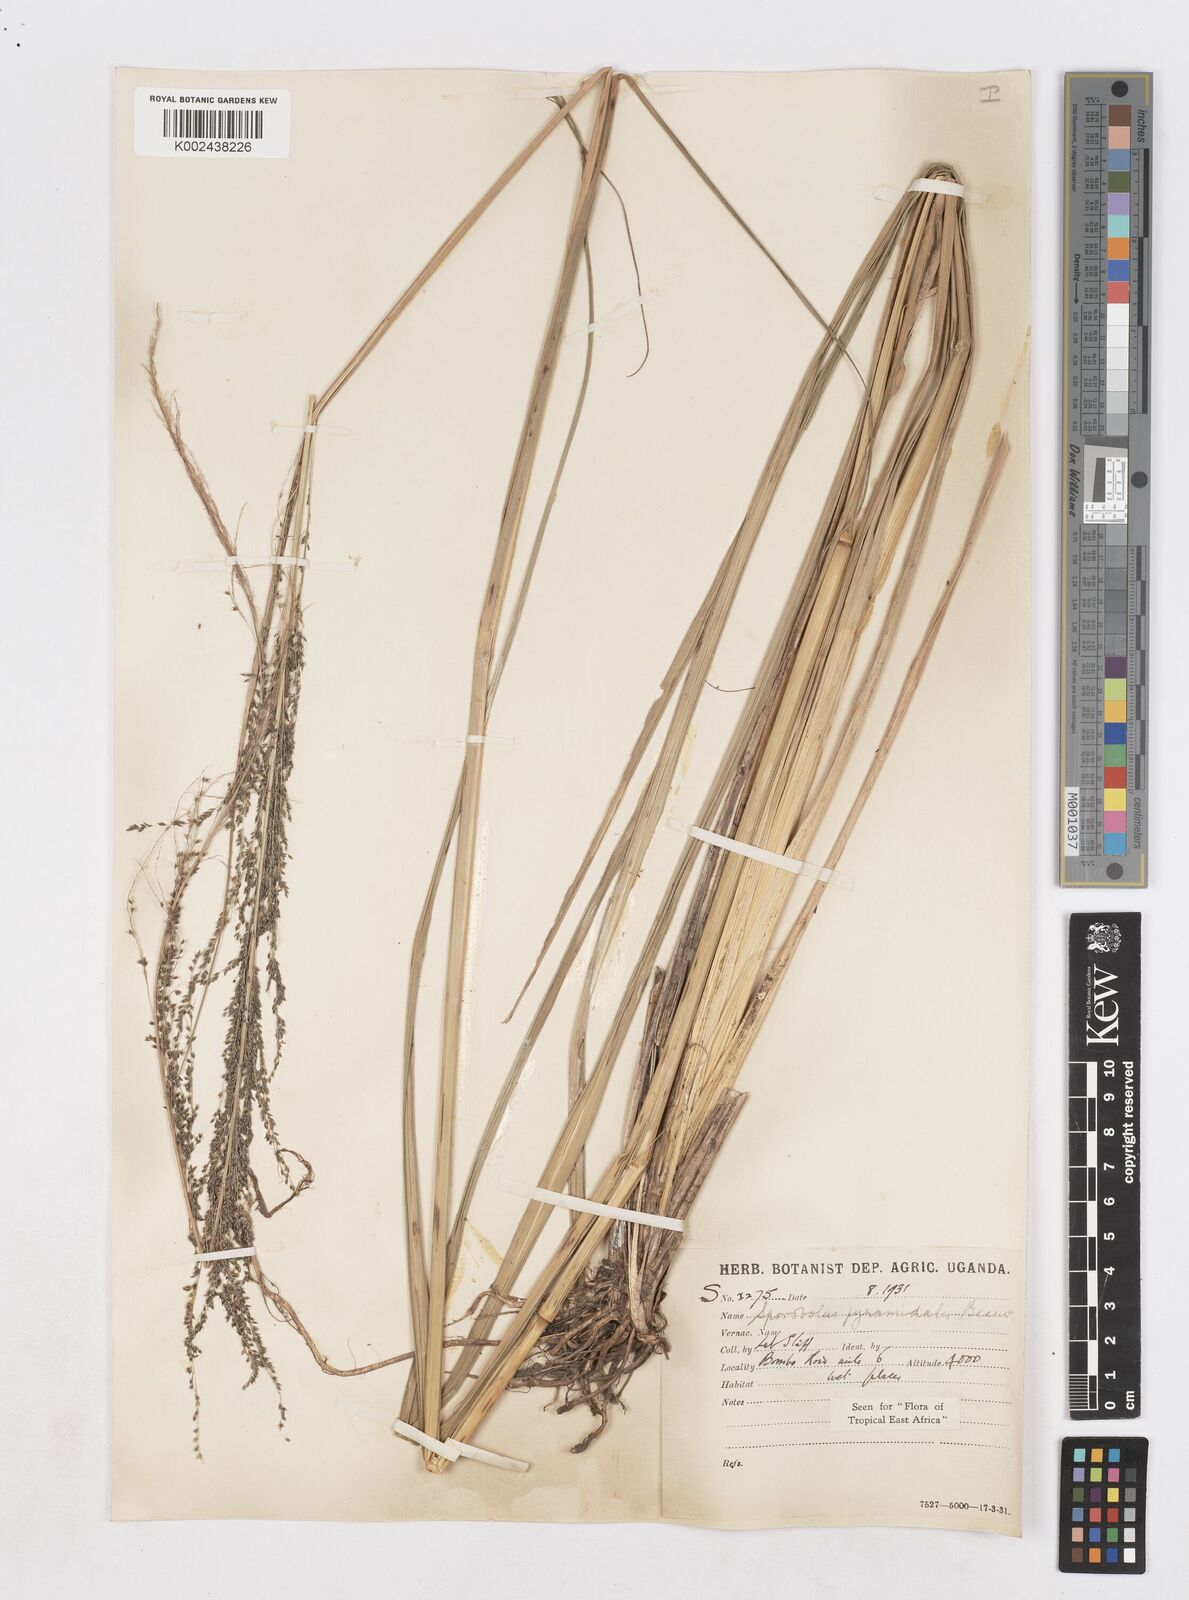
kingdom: Plantae
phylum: Tracheophyta
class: Liliopsida
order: Poales
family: Poaceae
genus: Sporobolus
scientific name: Sporobolus pyramidalis
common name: West indian dropseed
